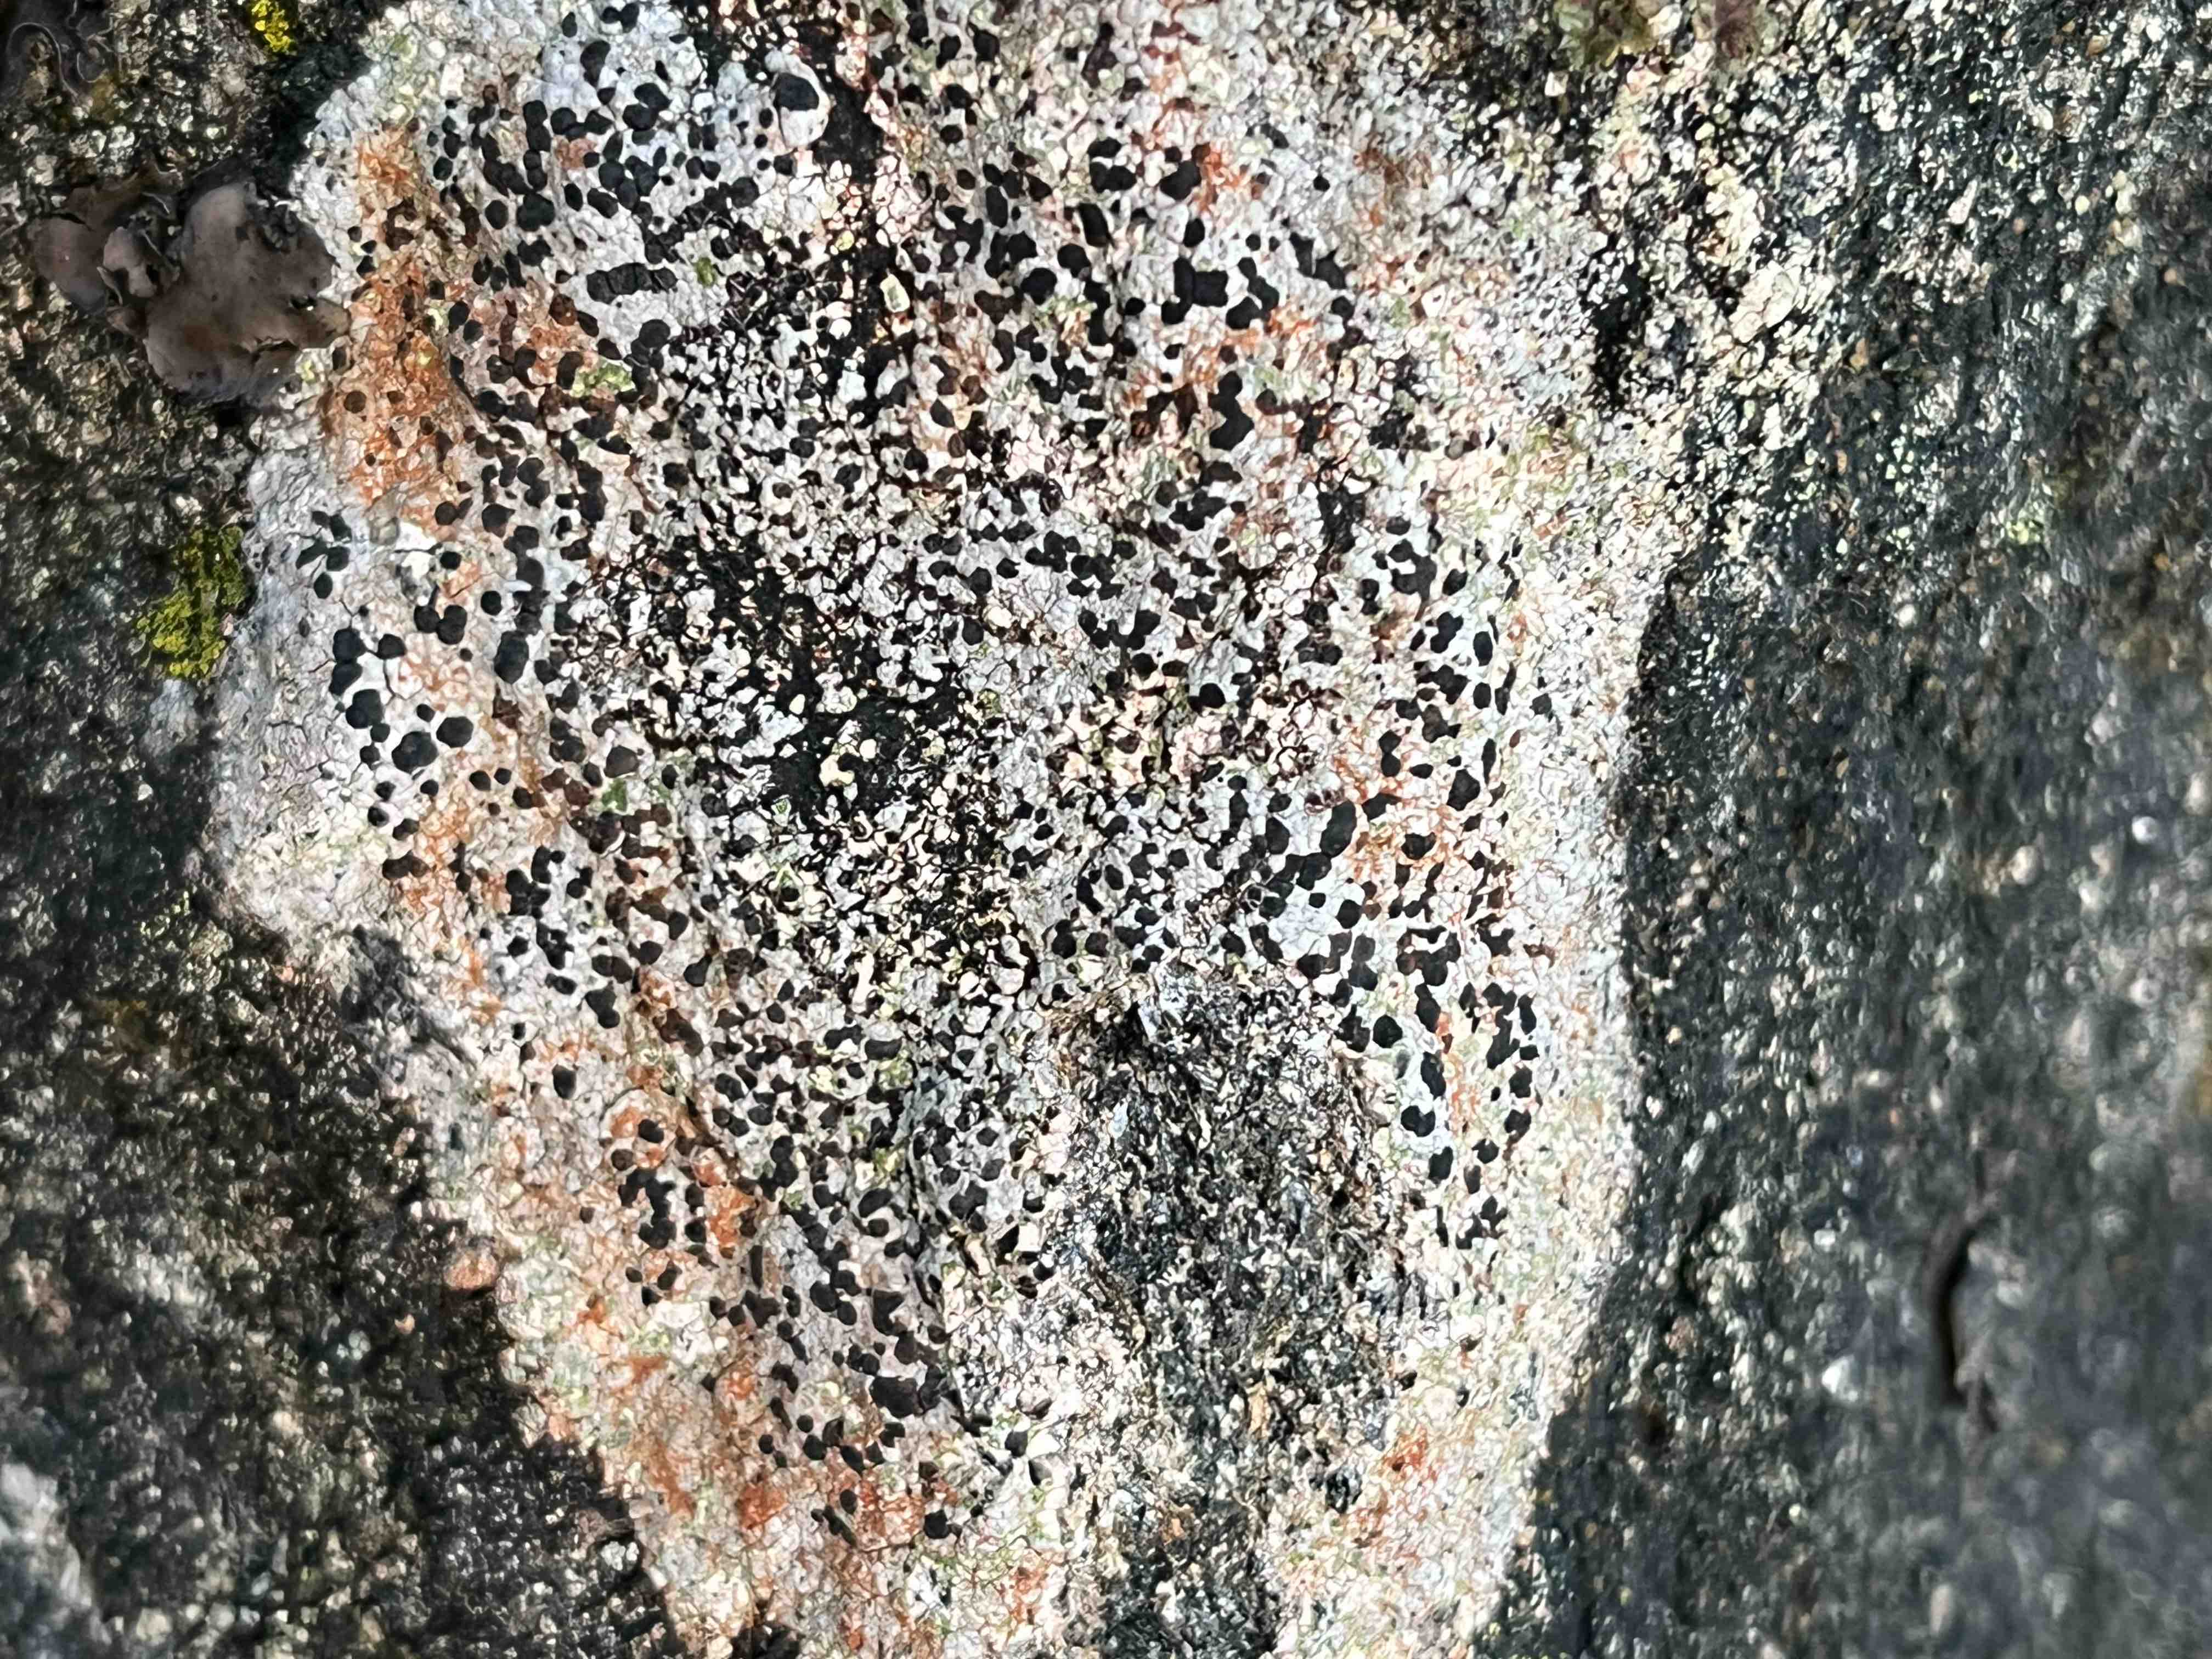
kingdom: Fungi
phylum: Ascomycota
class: Lecanoromycetes
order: Lecanorales
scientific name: Lecanorales
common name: skivelavordenen
